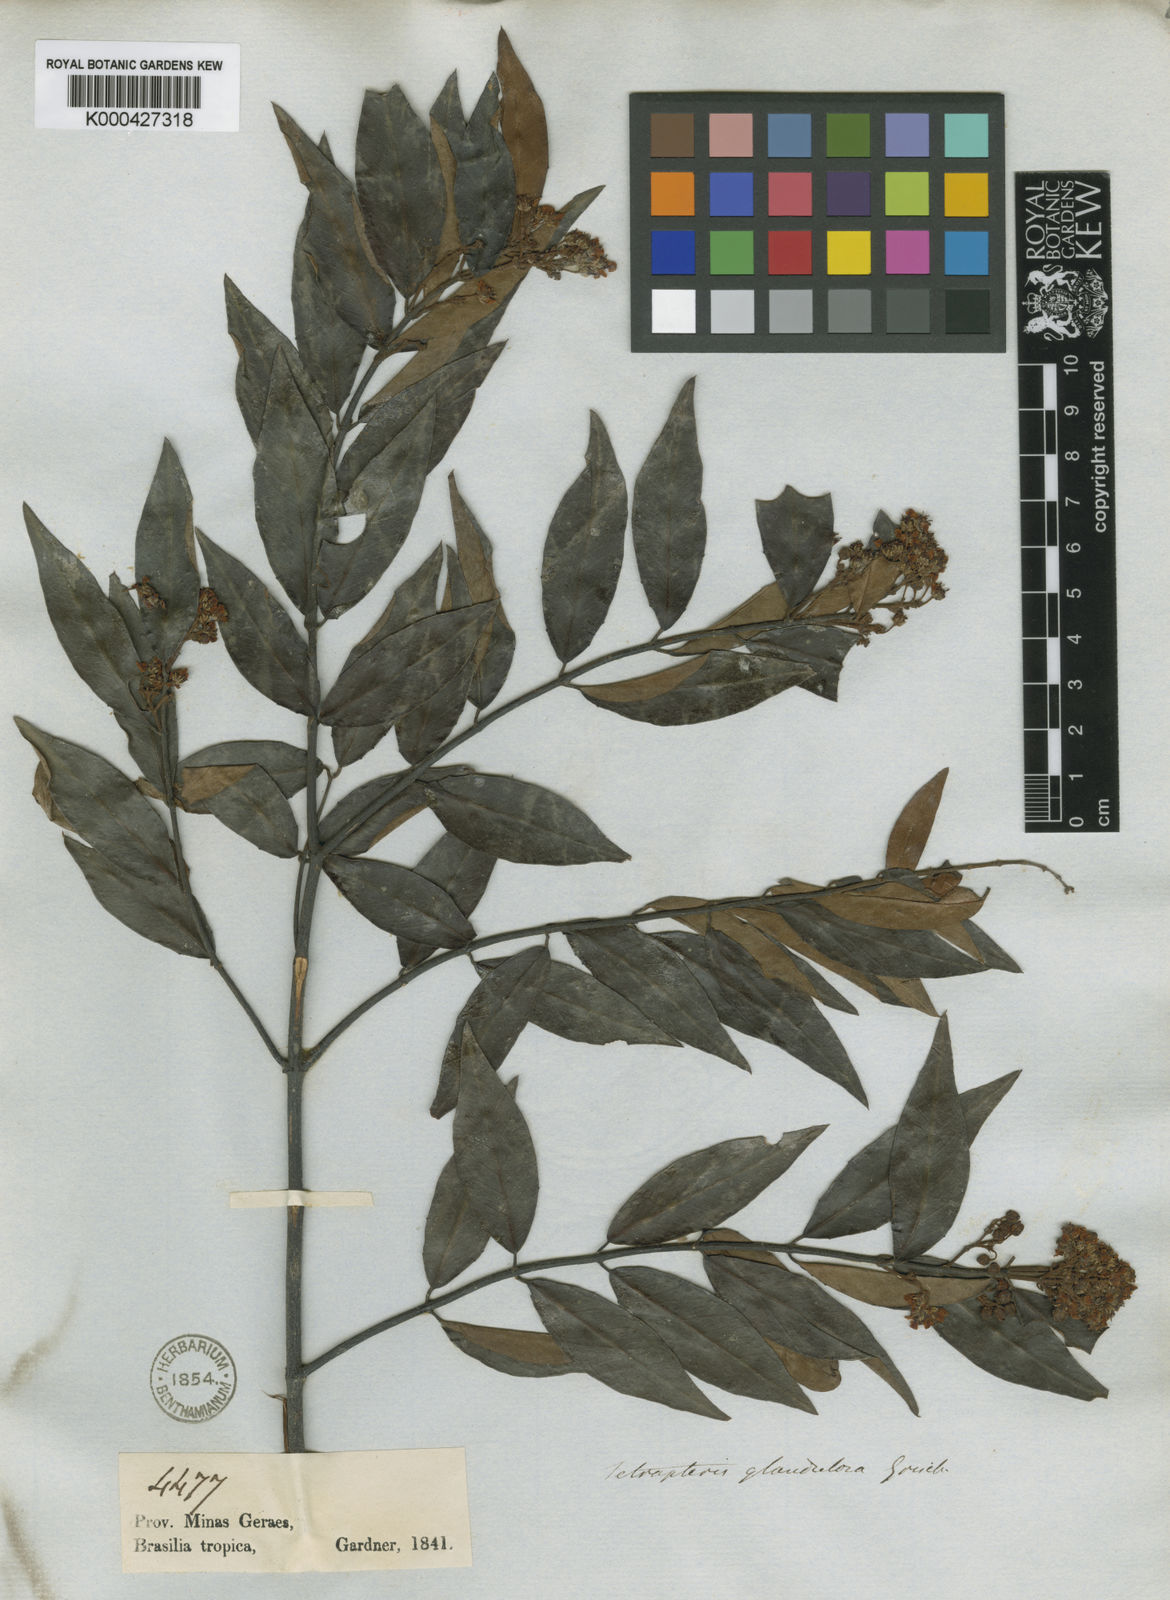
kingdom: Plantae
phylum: Tracheophyta
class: Magnoliopsida
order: Malpighiales
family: Malpighiaceae
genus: Niedenzuella
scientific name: Niedenzuella sericea
